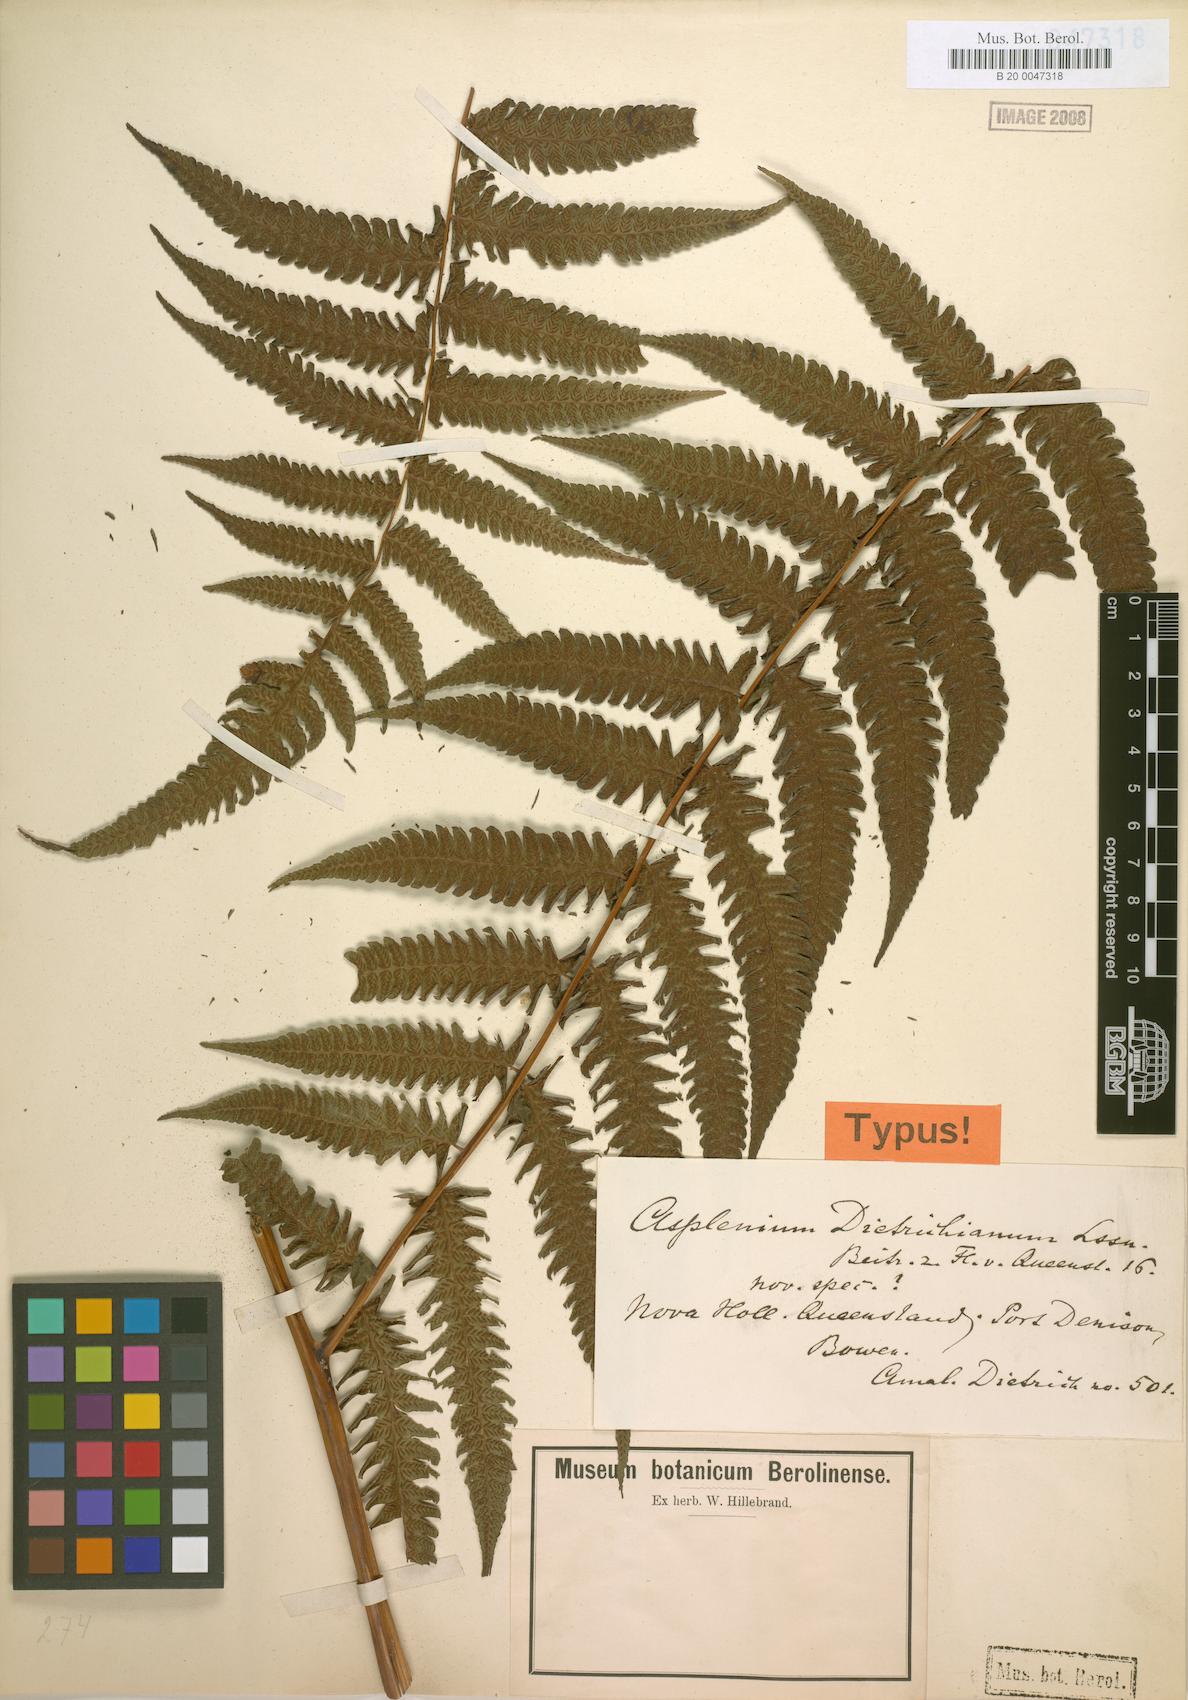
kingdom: Plantae
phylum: Tracheophyta
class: Polypodiopsida
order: Polypodiales
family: Athyriaceae
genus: Diplazium
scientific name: Diplazium dietrichianum
